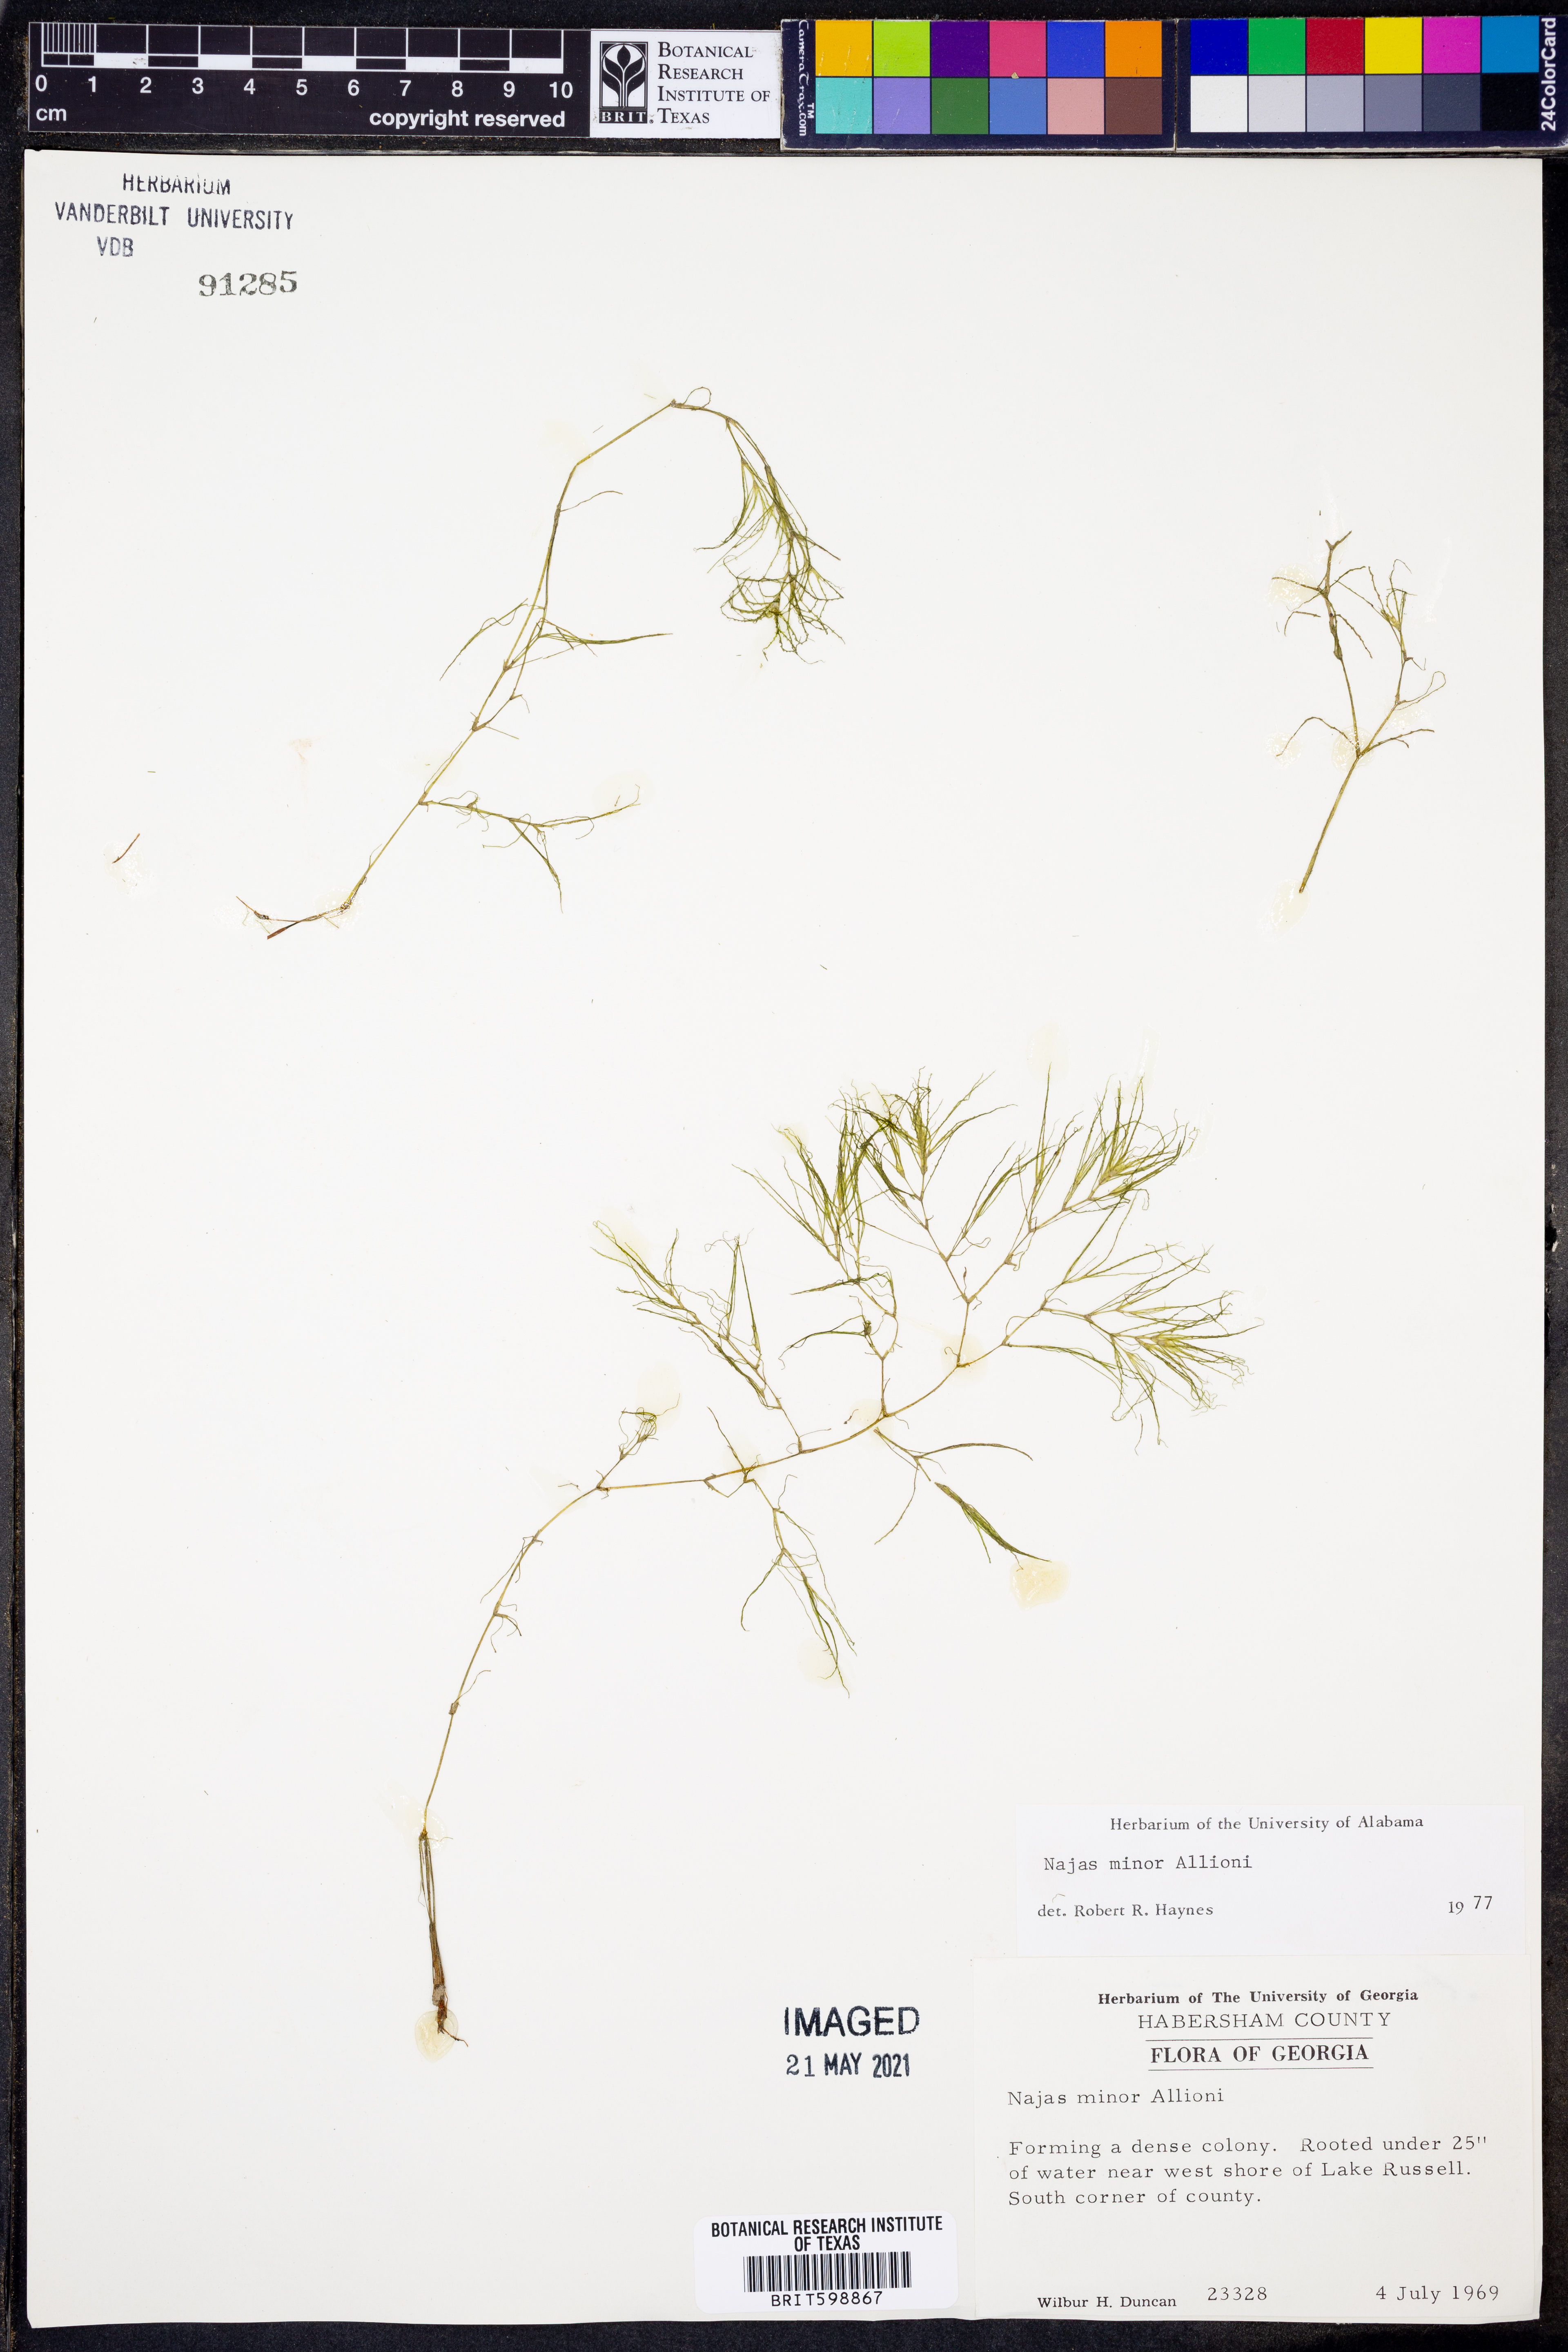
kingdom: Plantae
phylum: Tracheophyta
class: Liliopsida
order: Alismatales
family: Hydrocharitaceae
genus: Najas
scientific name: Najas minor
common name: Brittle naiad
